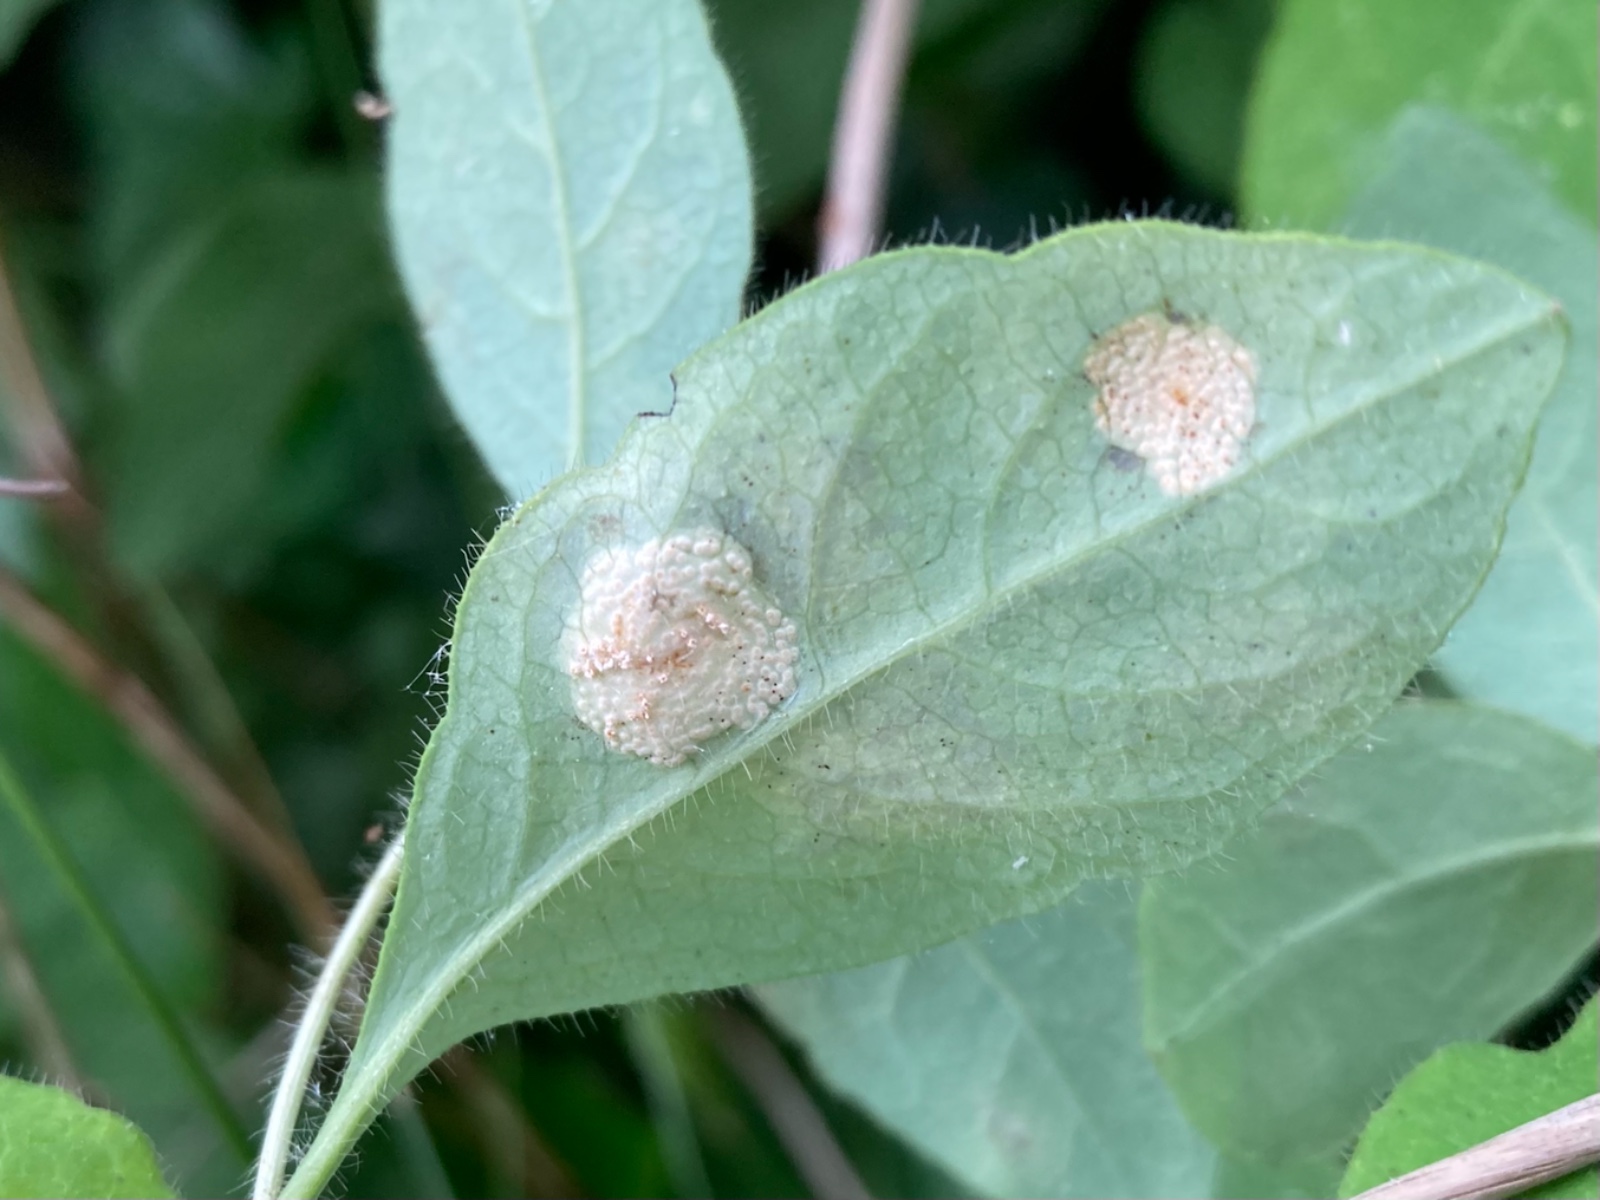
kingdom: Fungi
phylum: Basidiomycota
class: Pucciniomycetes
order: Pucciniales
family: Pucciniaceae
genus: Puccinia
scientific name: Puccinia festucae
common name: gedeblad-tvecellerust
